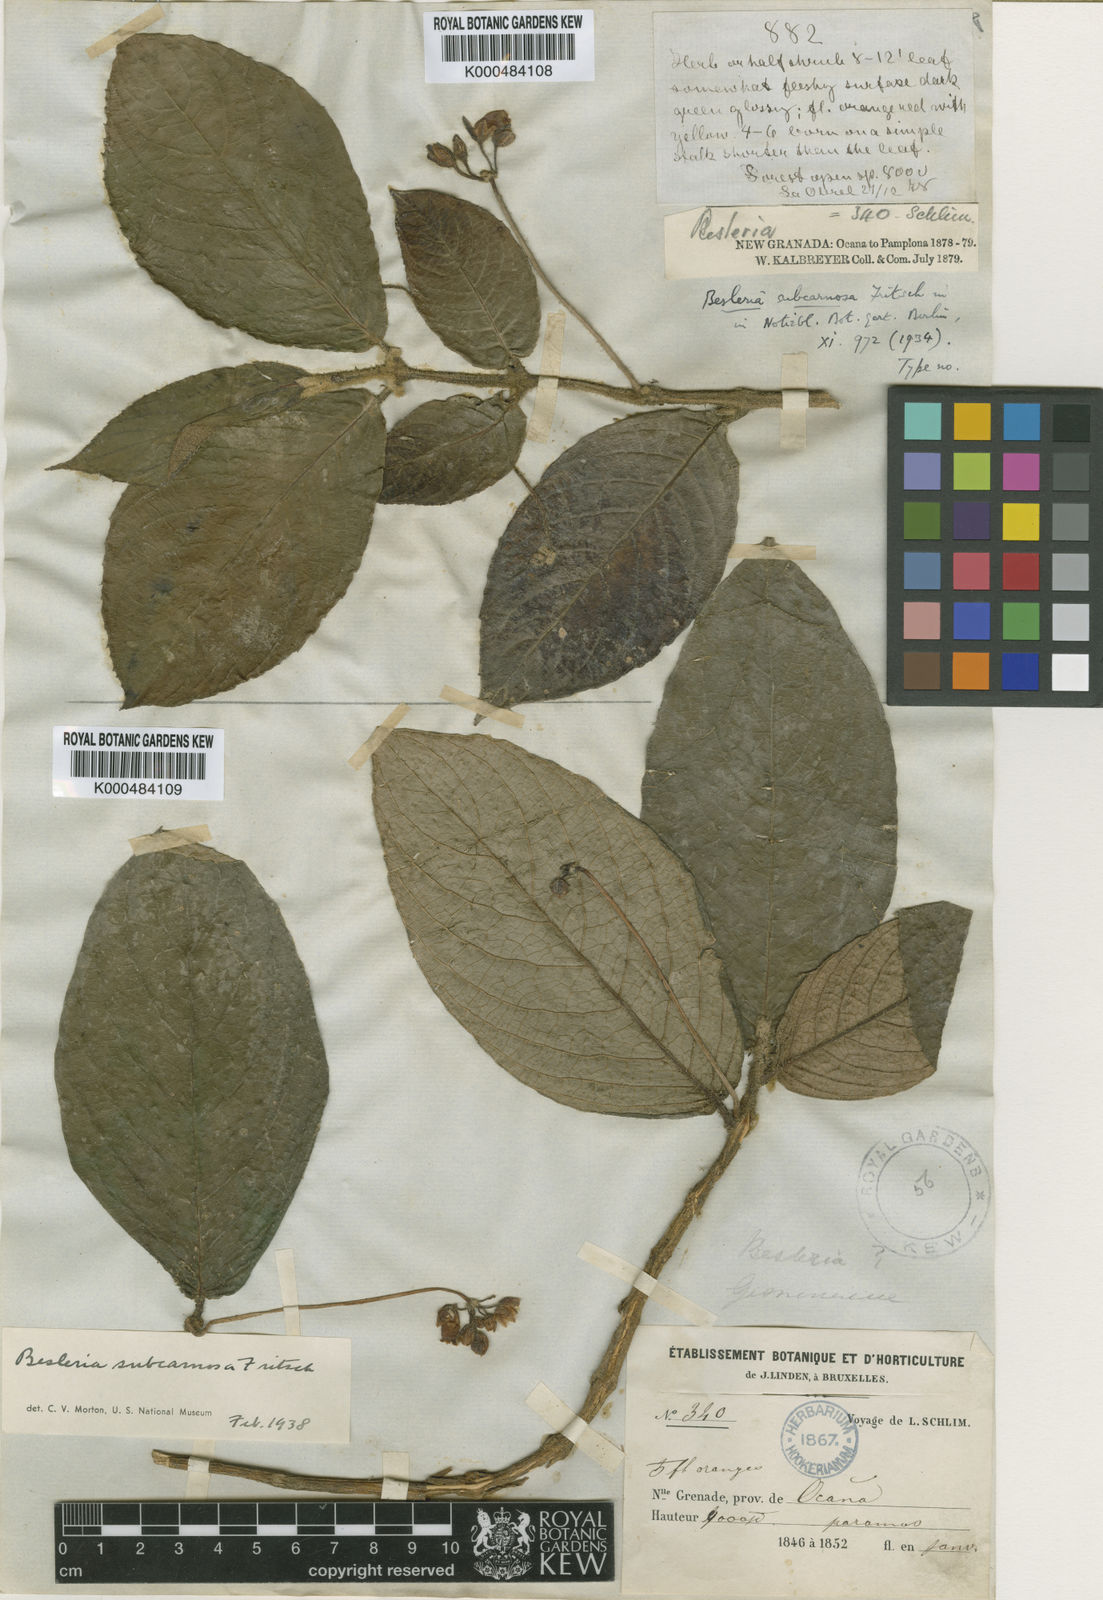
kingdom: Plantae
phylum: Tracheophyta
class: Magnoliopsida
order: Lamiales
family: Gesneriaceae
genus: Besleria
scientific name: Besleria subcarnosa
